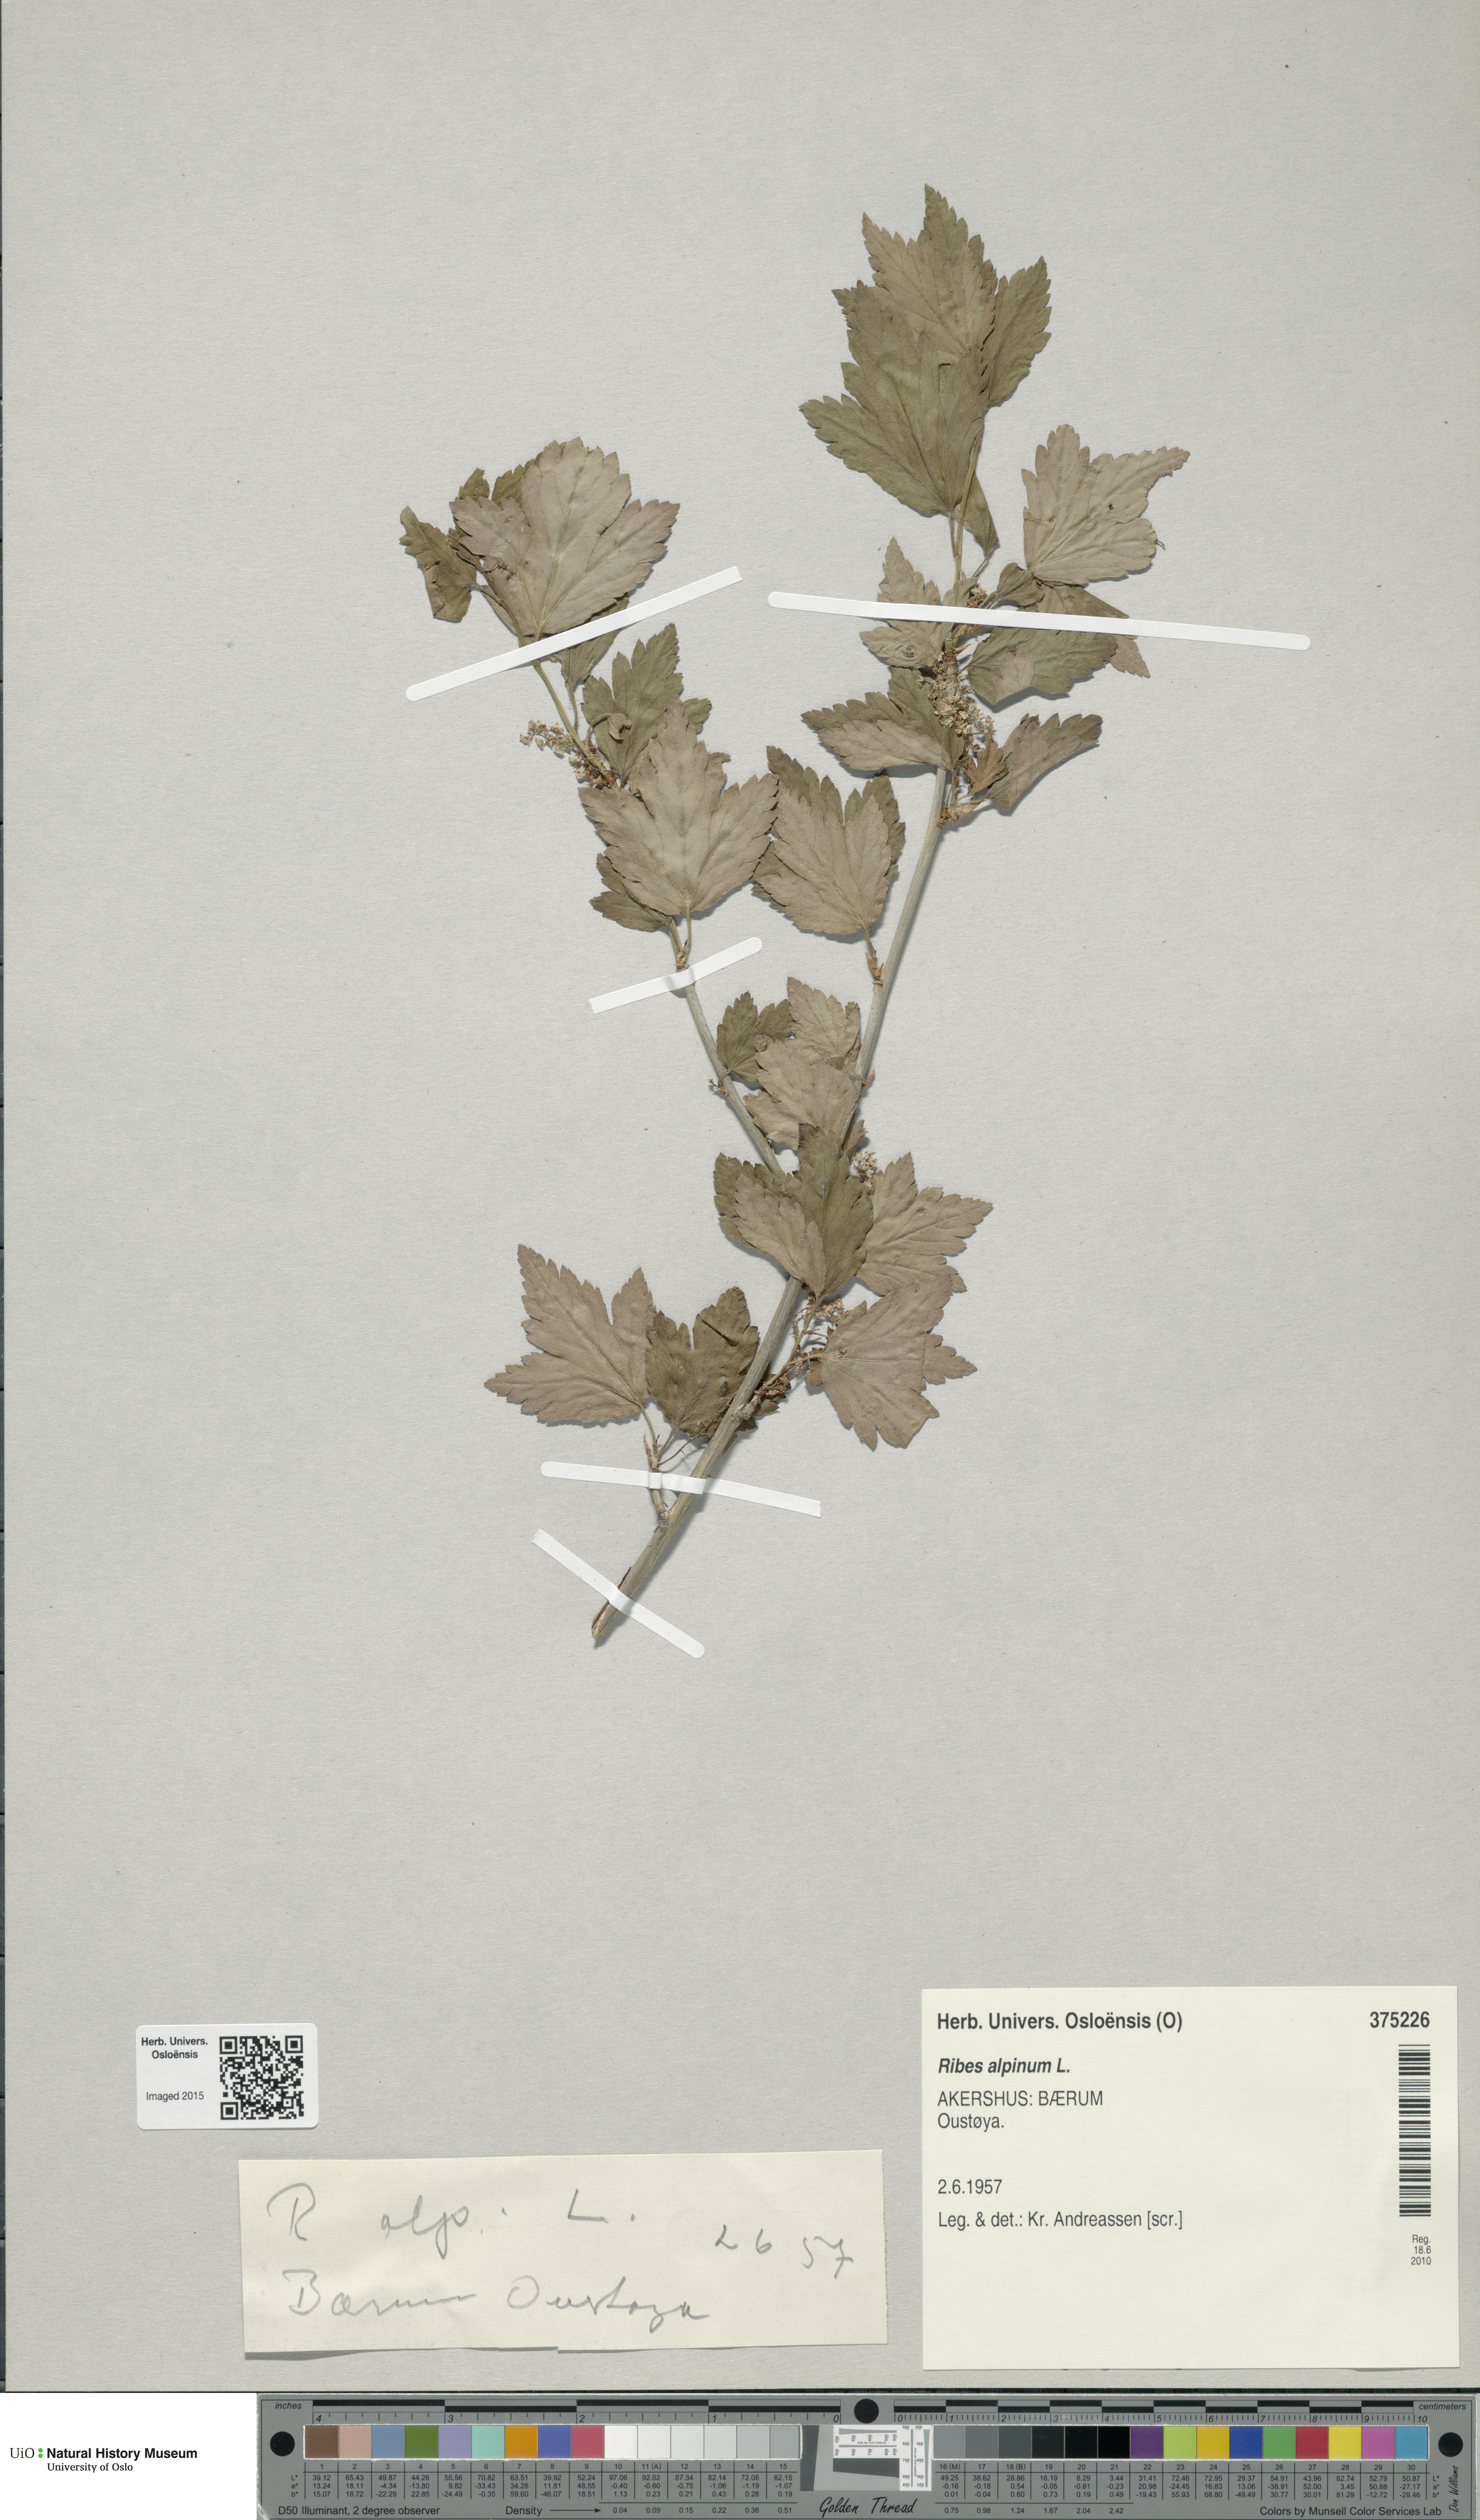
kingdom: Plantae
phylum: Tracheophyta
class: Magnoliopsida
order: Saxifragales
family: Grossulariaceae
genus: Ribes
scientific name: Ribes alpinum
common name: Alpine currant
